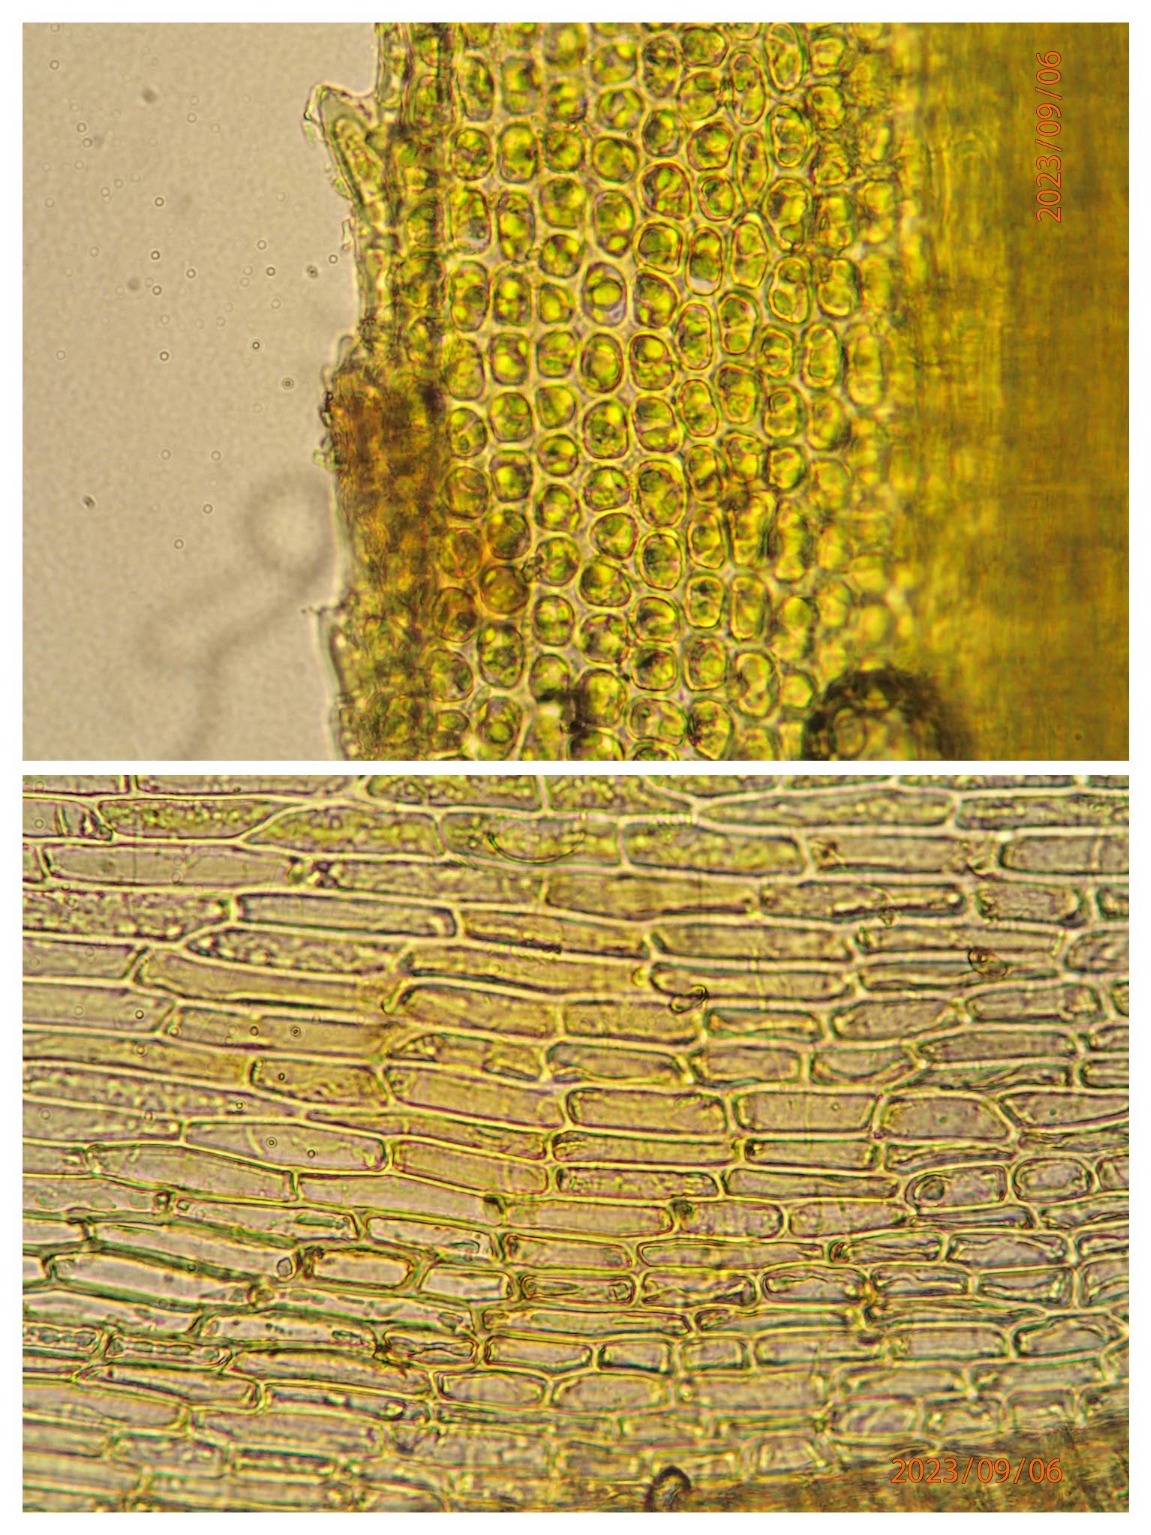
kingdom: Plantae
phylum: Bryophyta
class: Bryopsida
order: Bartramiales
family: Bartramiaceae
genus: Bartramia
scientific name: Bartramia pomiformis
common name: Gulgrøn kuglekapsel
